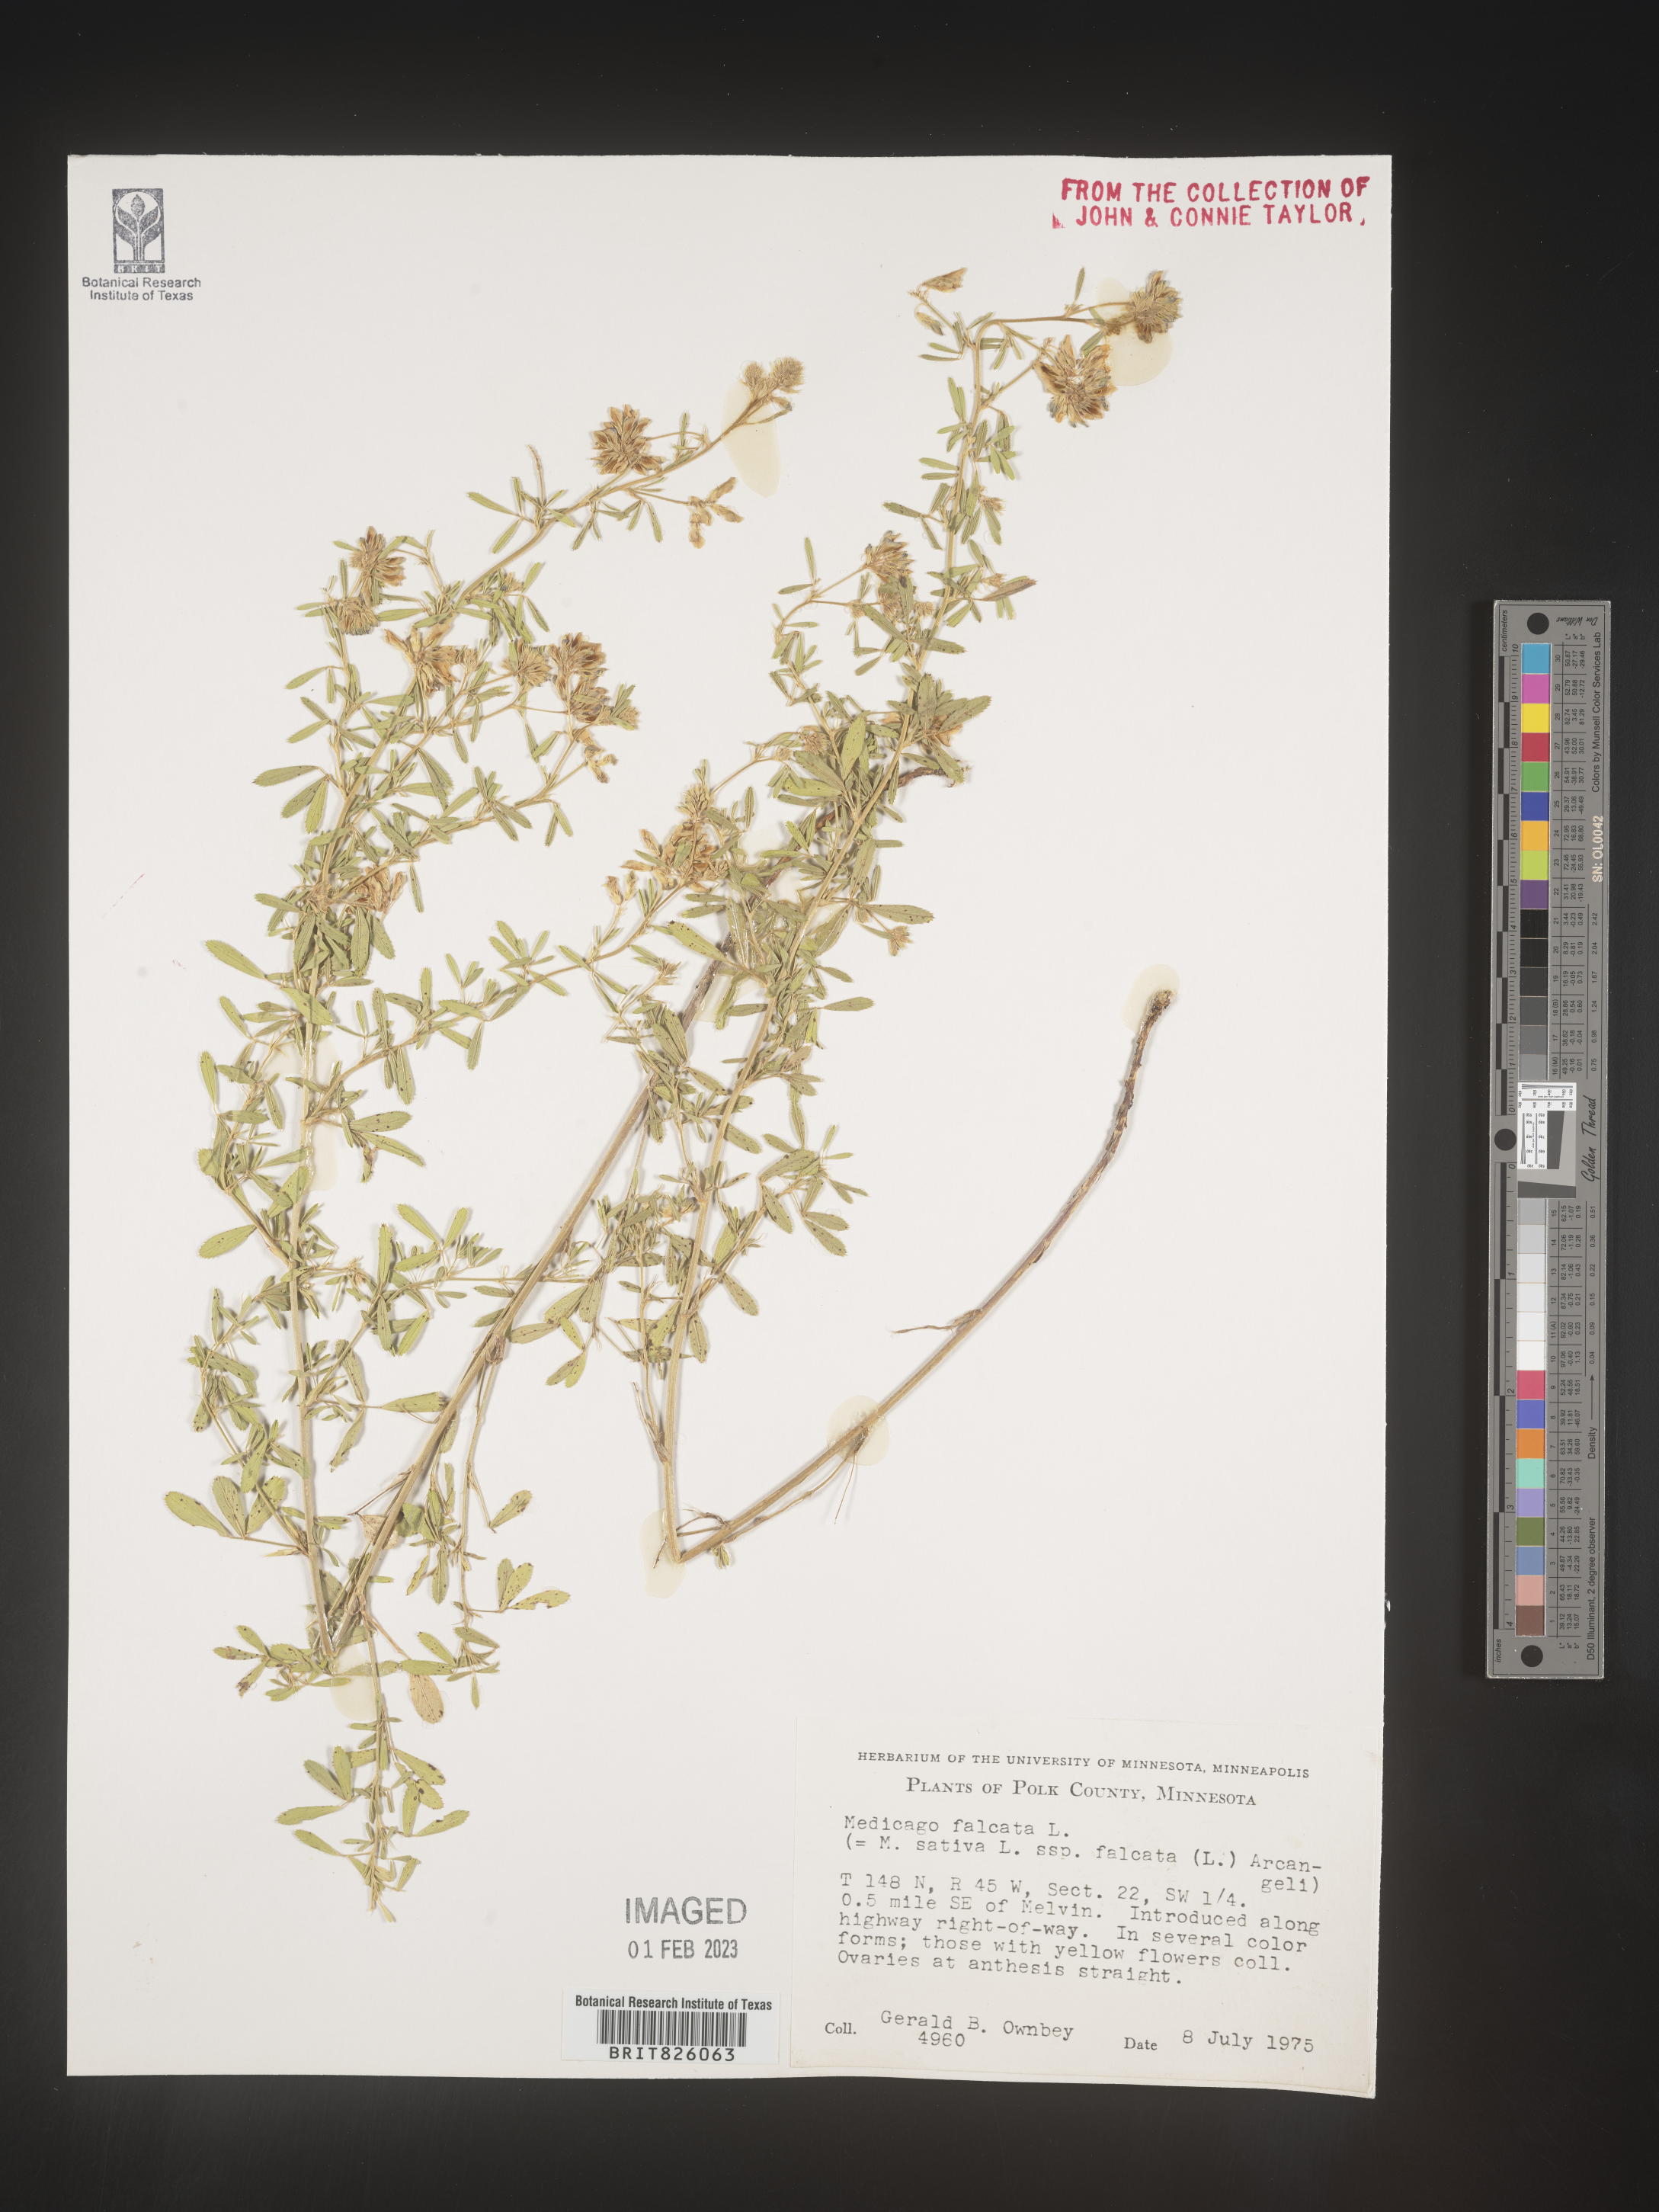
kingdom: Plantae
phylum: Tracheophyta
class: Magnoliopsida
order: Fabales
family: Fabaceae
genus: Medicago
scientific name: Medicago sativa
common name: Alfalfa
